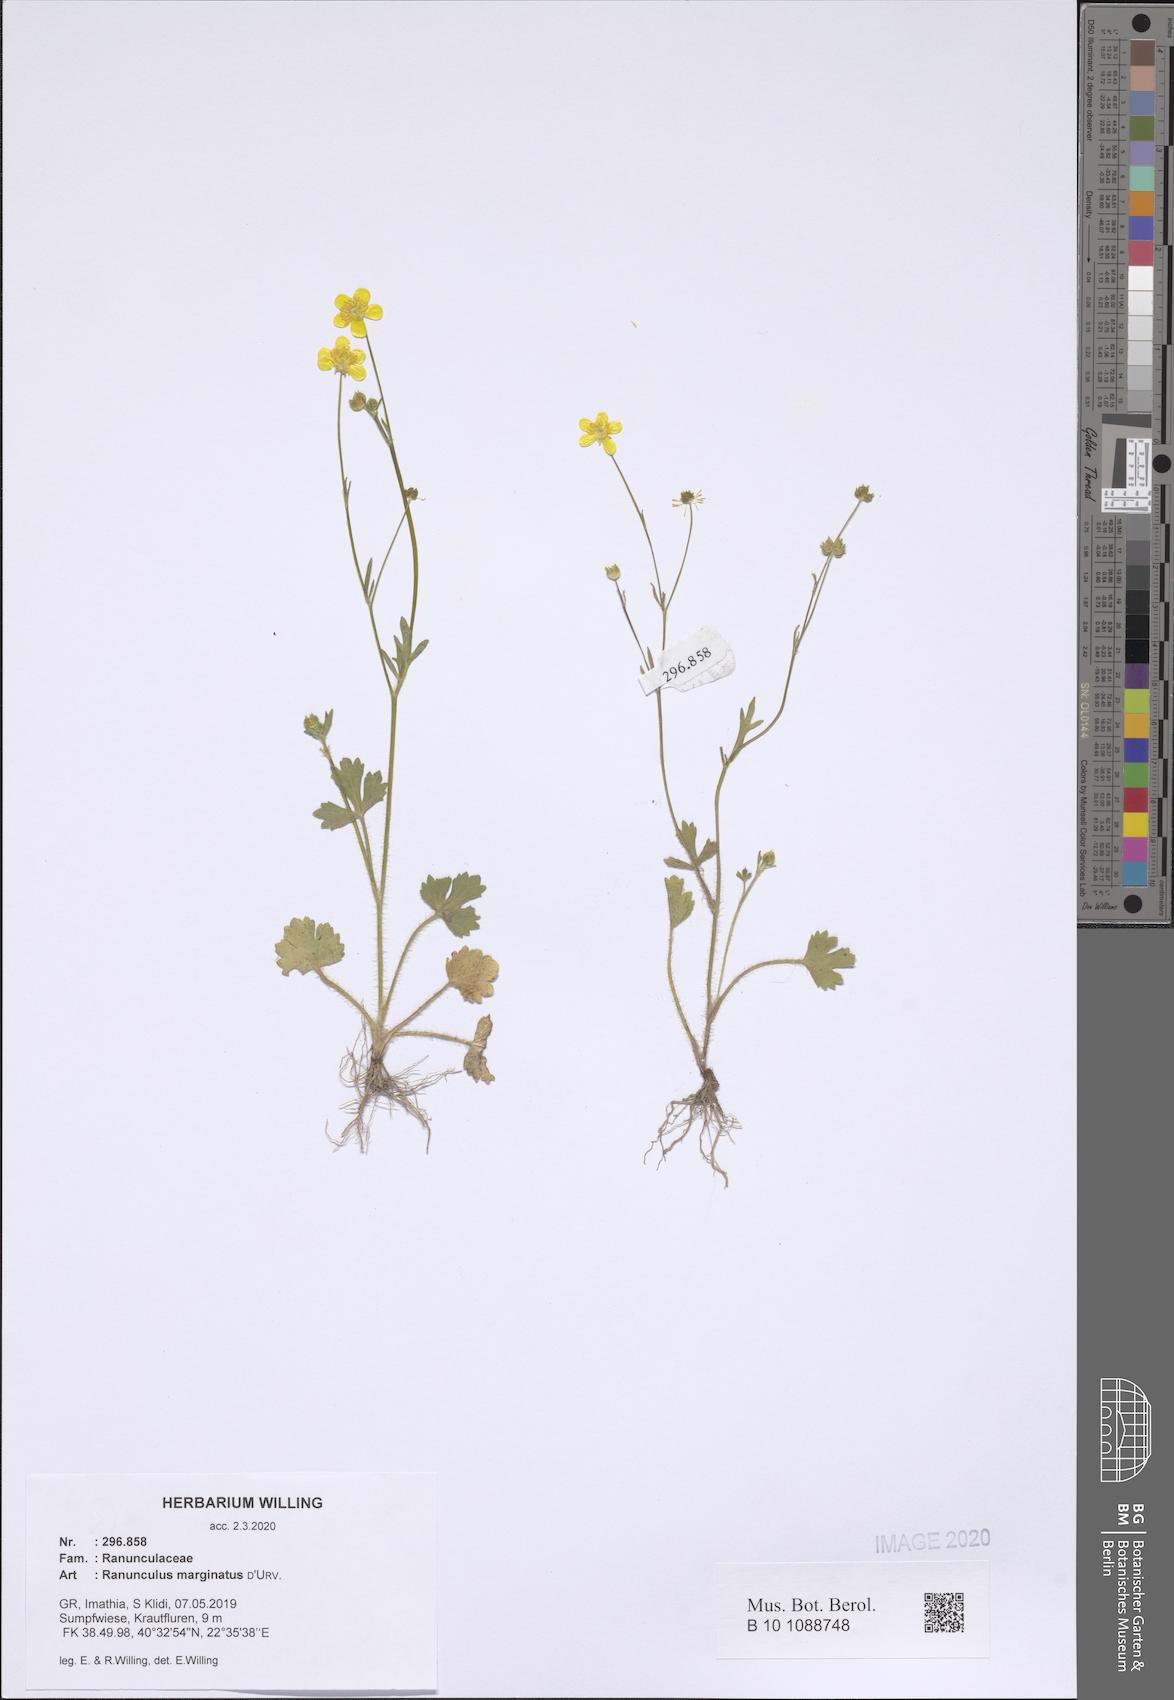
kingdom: Plantae
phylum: Tracheophyta
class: Magnoliopsida
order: Ranunculales
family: Ranunculaceae
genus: Ranunculus
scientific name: Ranunculus marginatus
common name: St. martin's buttercup
